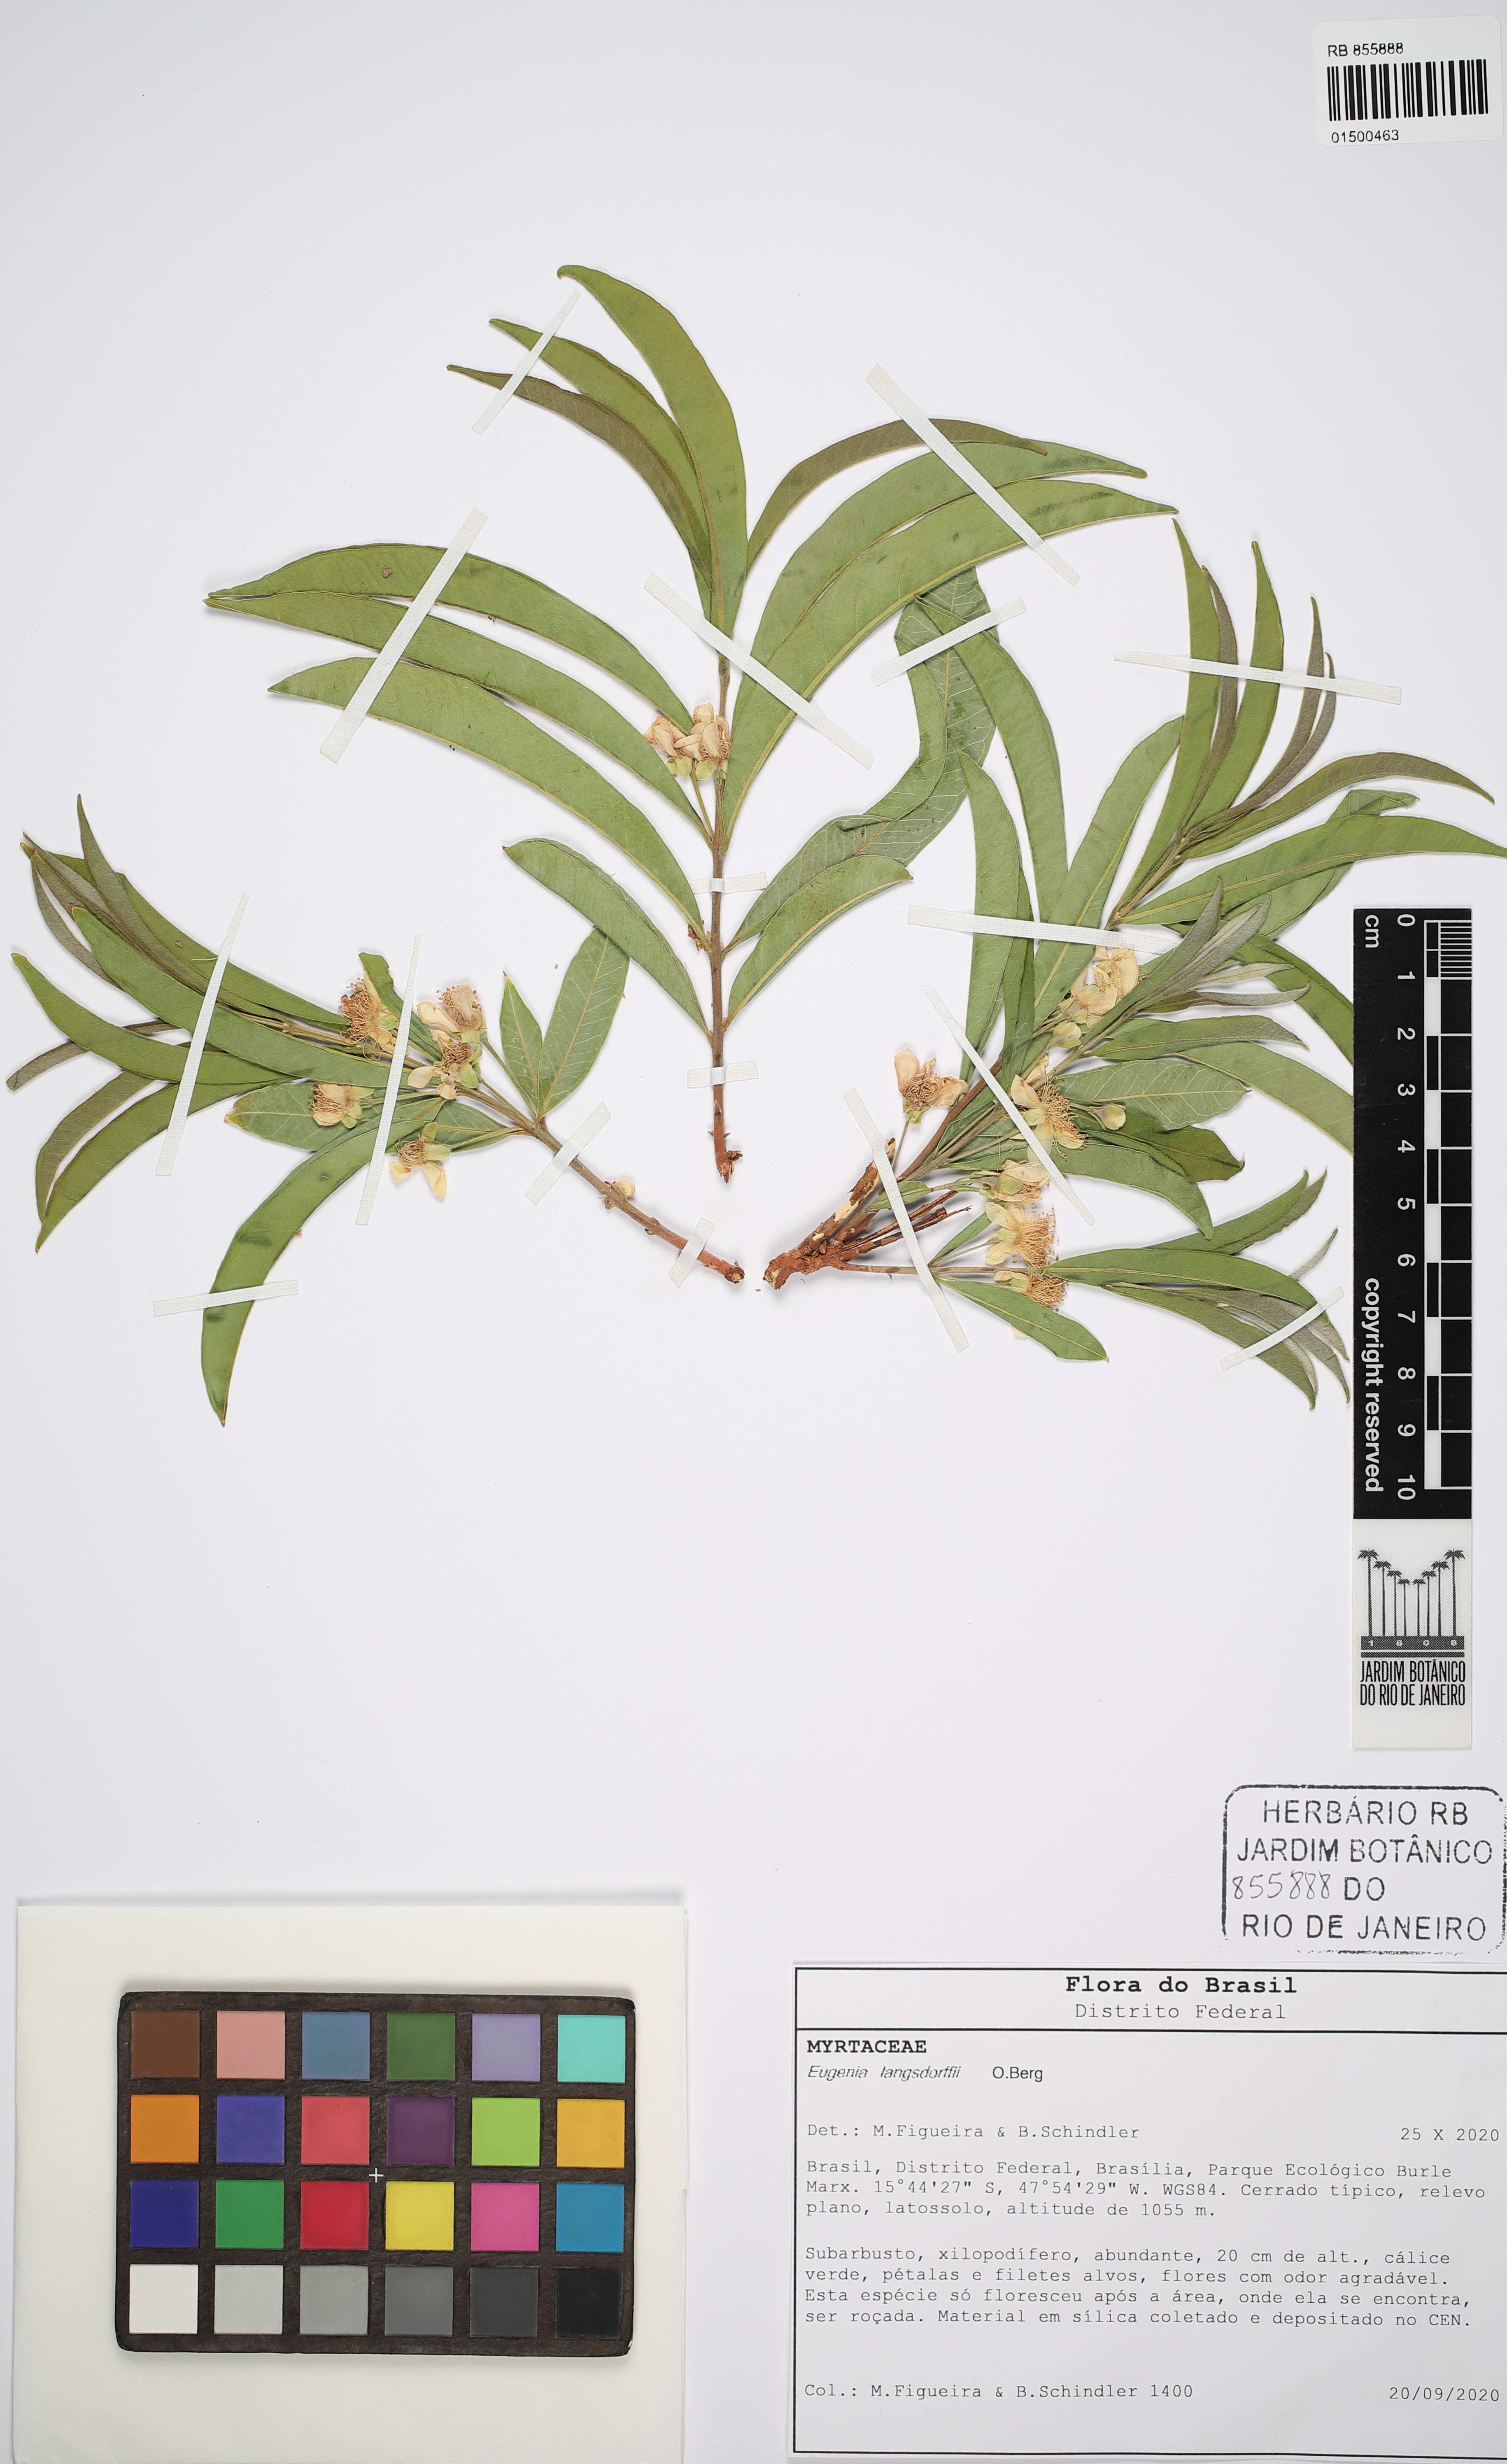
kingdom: Plantae
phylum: Tracheophyta
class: Magnoliopsida
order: Myrtales
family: Myrtaceae
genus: Eugenia
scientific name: Eugenia langsdorffii
